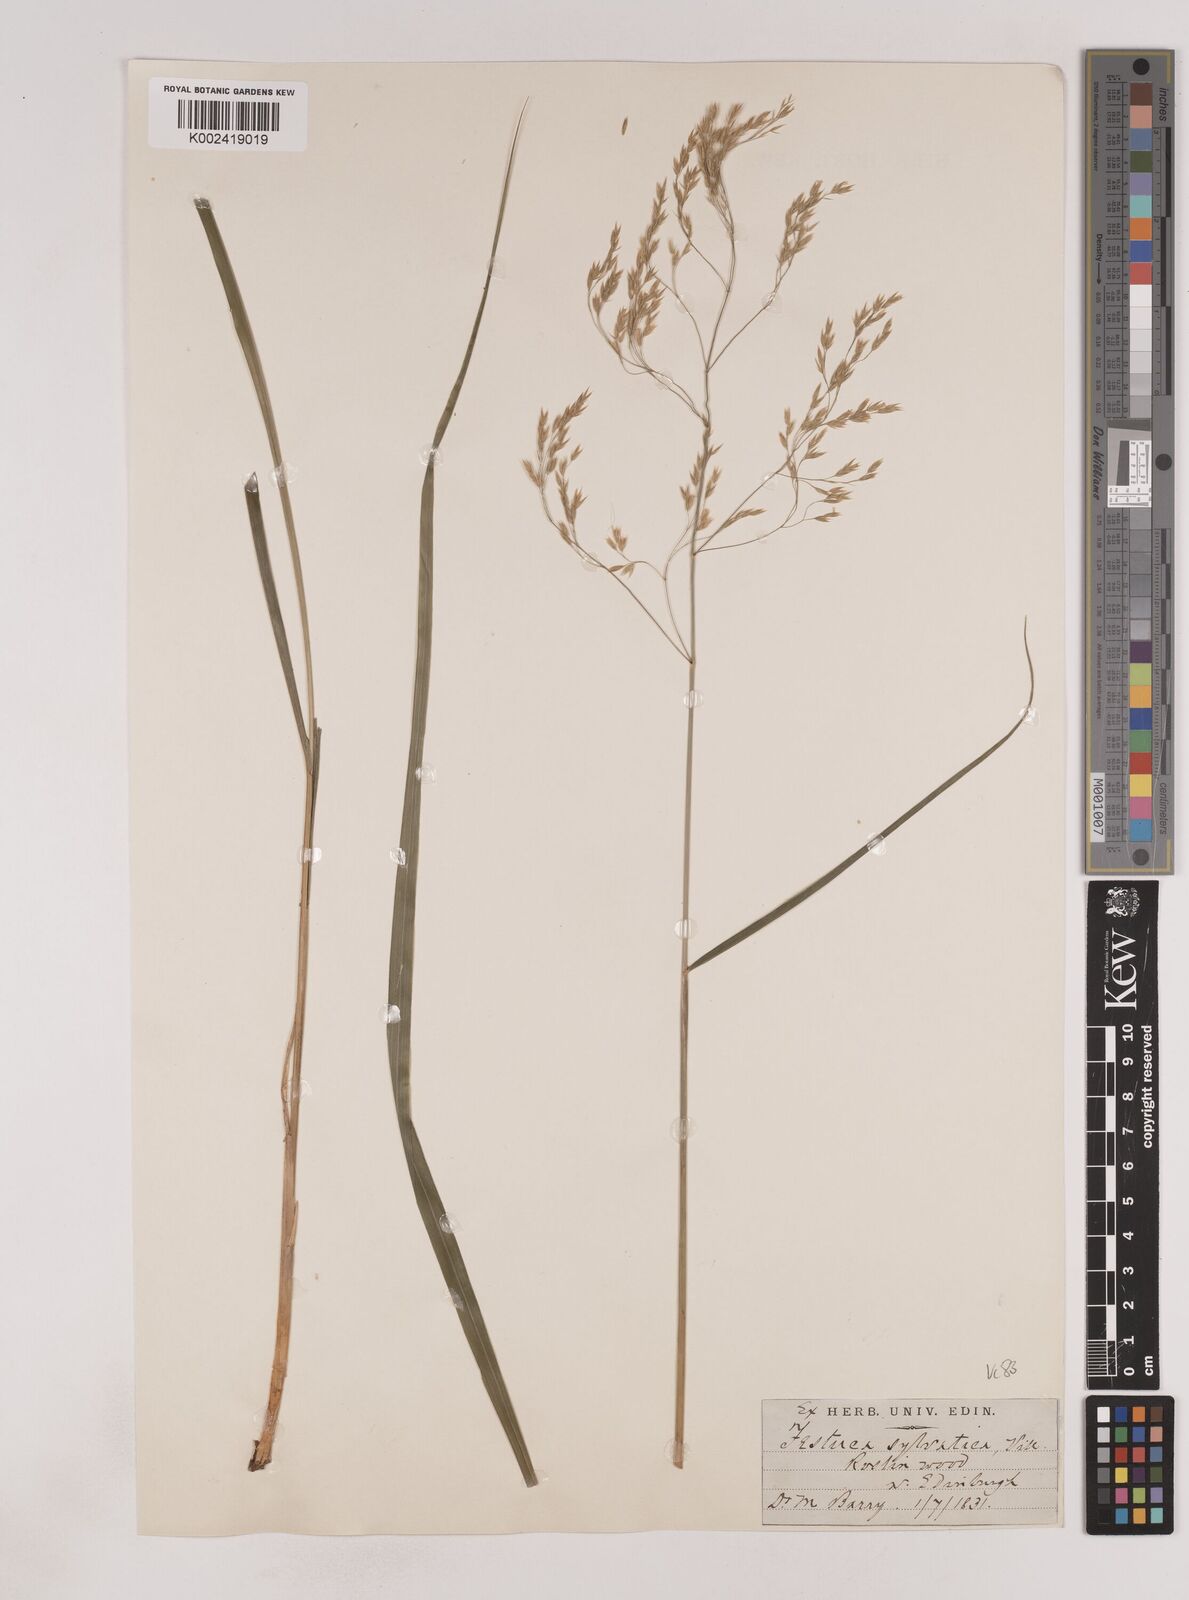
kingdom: Plantae
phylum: Tracheophyta
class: Liliopsida
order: Poales
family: Poaceae
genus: Festuca
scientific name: Festuca drymeja
